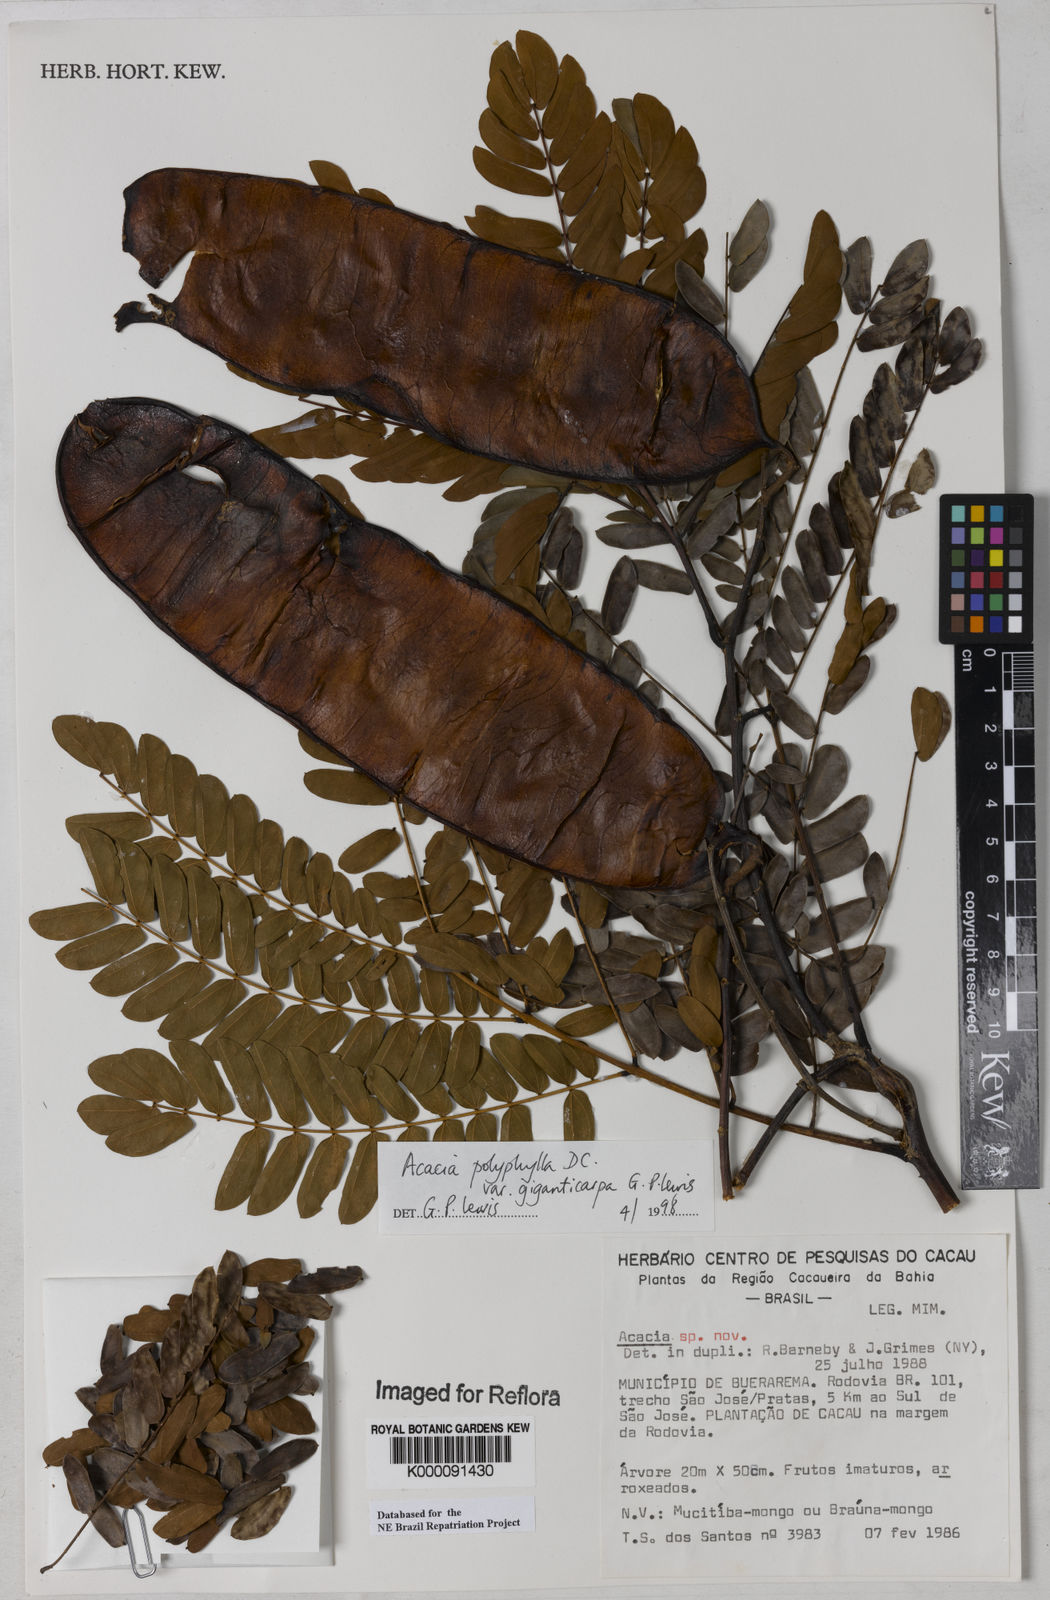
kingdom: Plantae
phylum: Tracheophyta
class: Magnoliopsida
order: Fabales
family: Fabaceae
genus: Senegalia
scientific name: Senegalia giganticarpa
